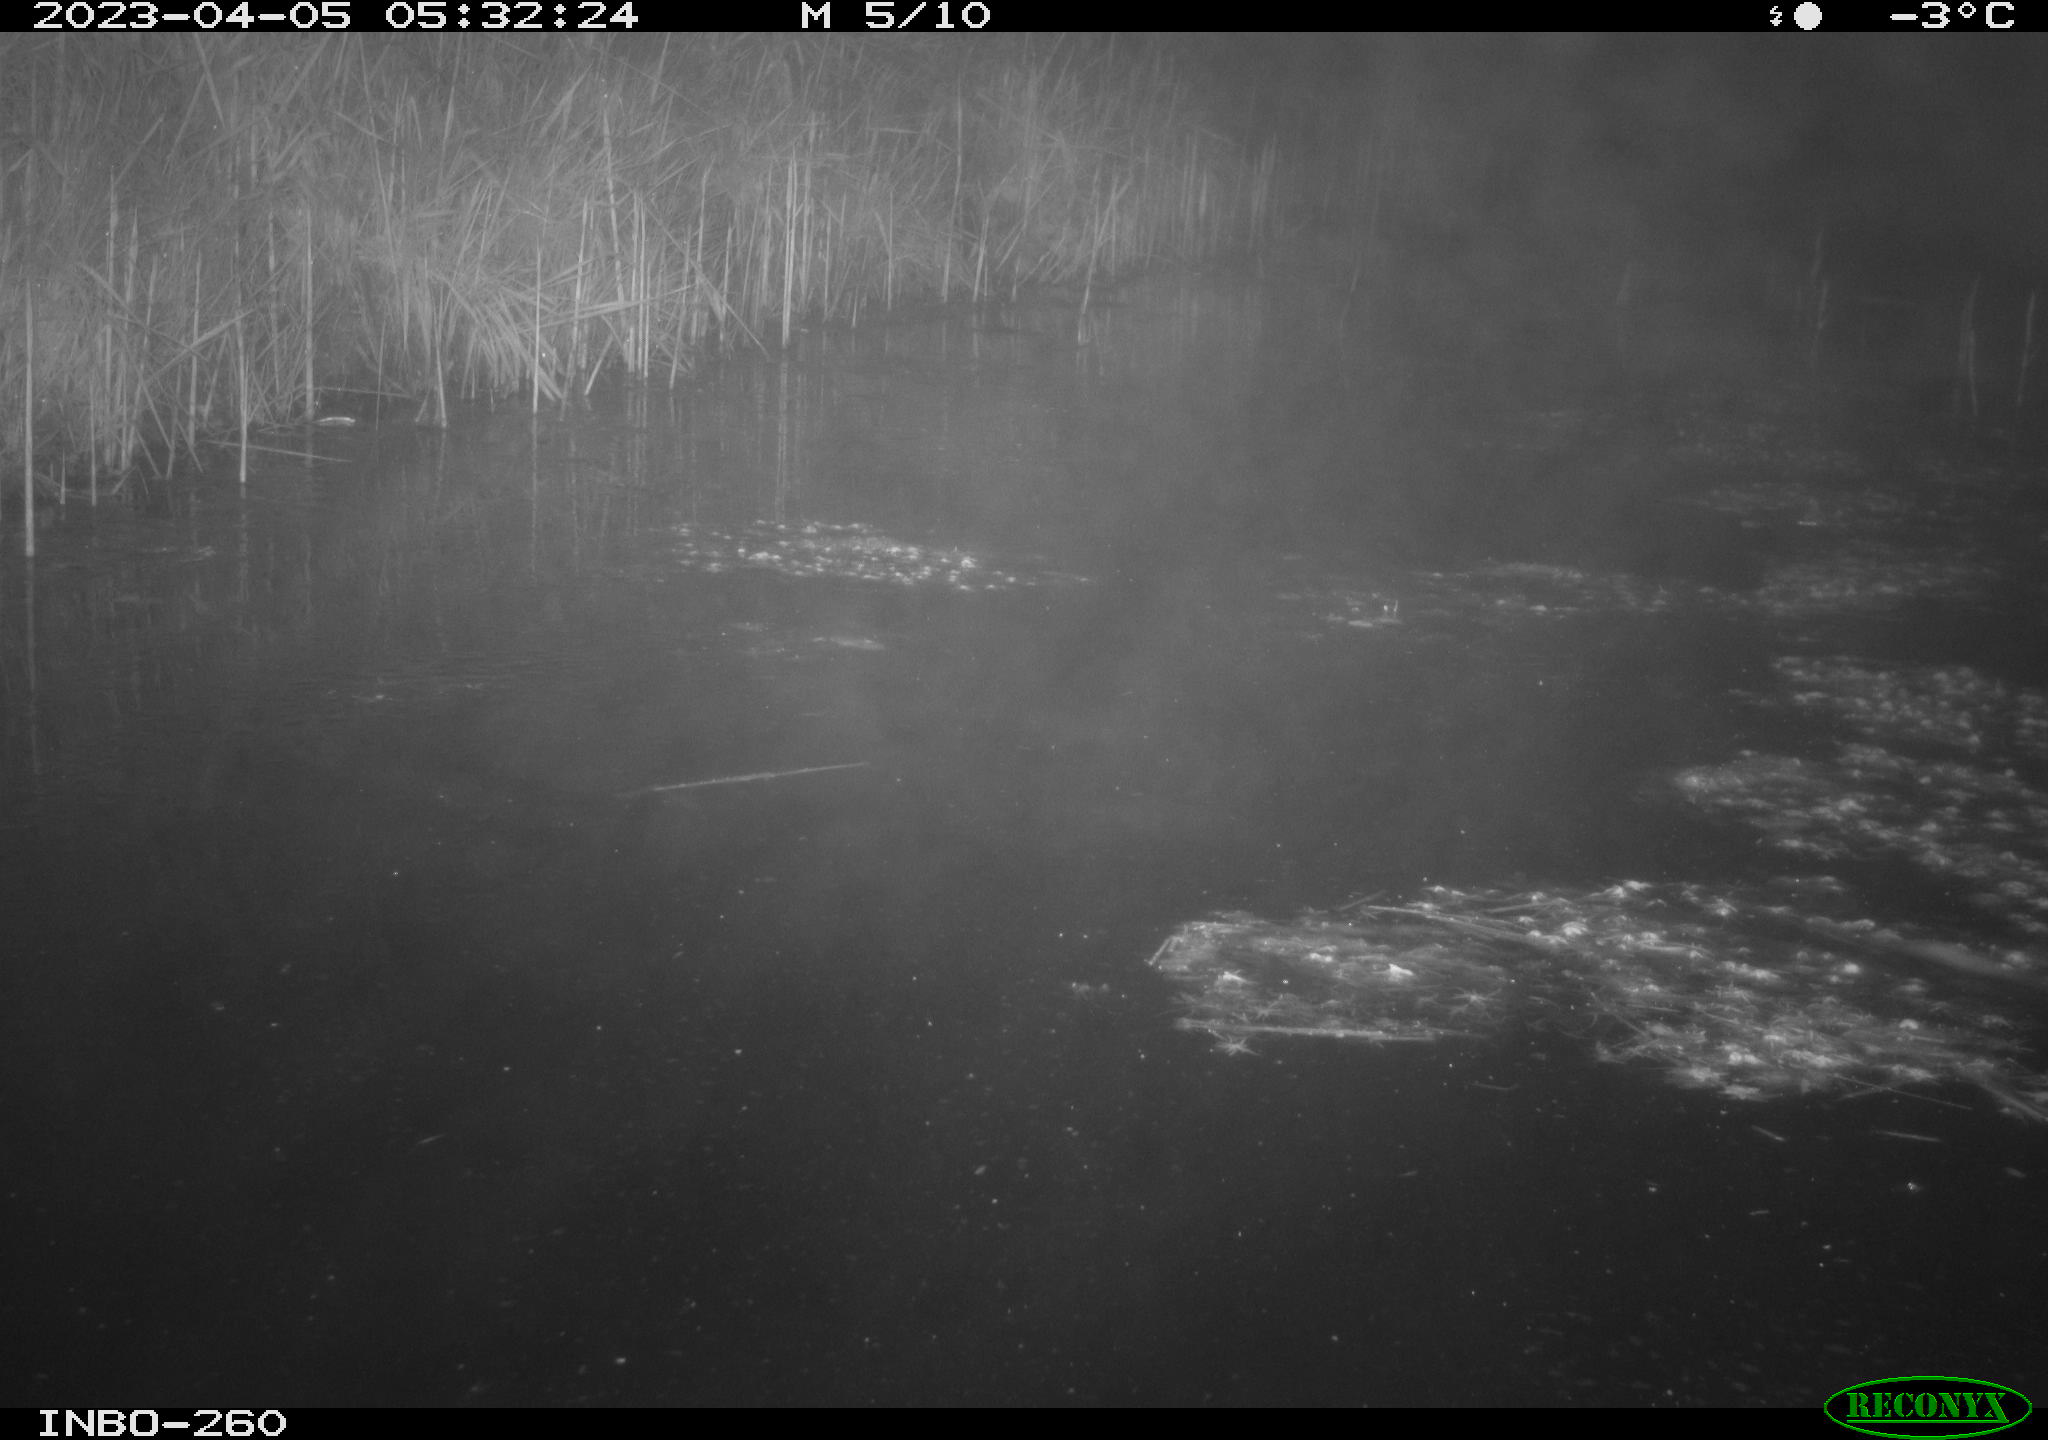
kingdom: Animalia
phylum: Chordata
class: Mammalia
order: Rodentia
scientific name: Rodentia
